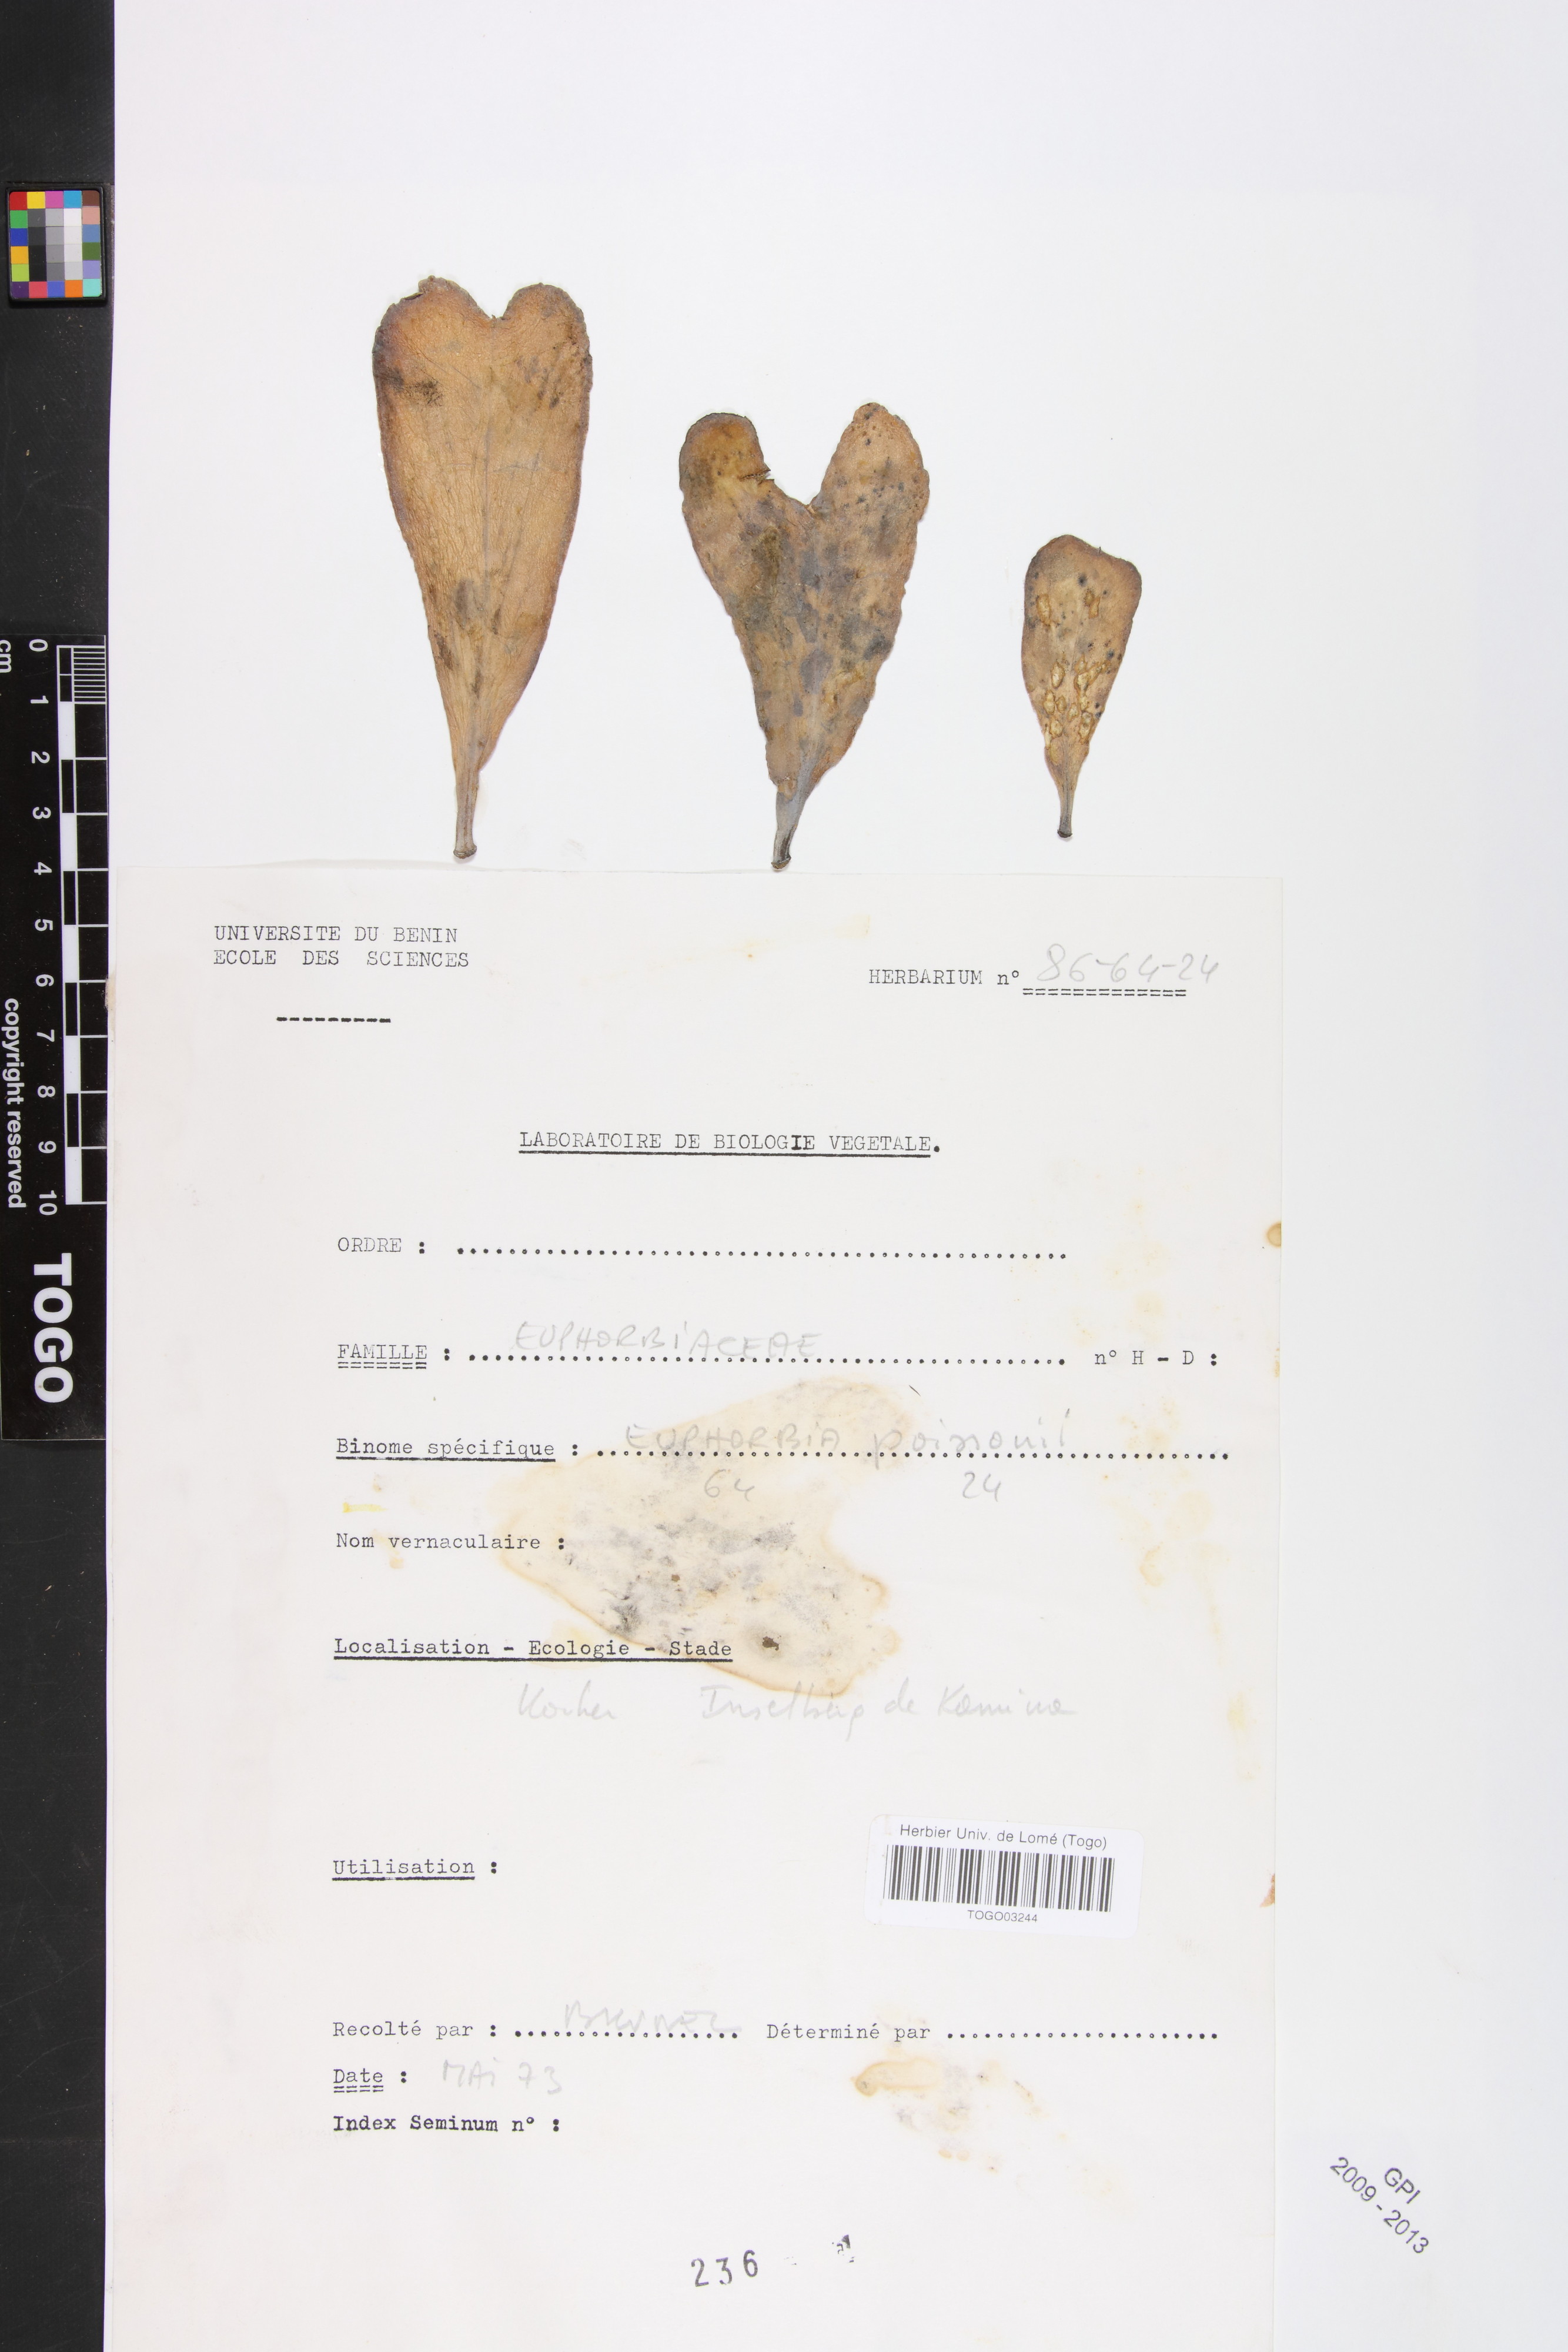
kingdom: Plantae
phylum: Tracheophyta
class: Magnoliopsida
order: Malpighiales
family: Euphorbiaceae
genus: Euphorbia
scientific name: Euphorbia poissonii
